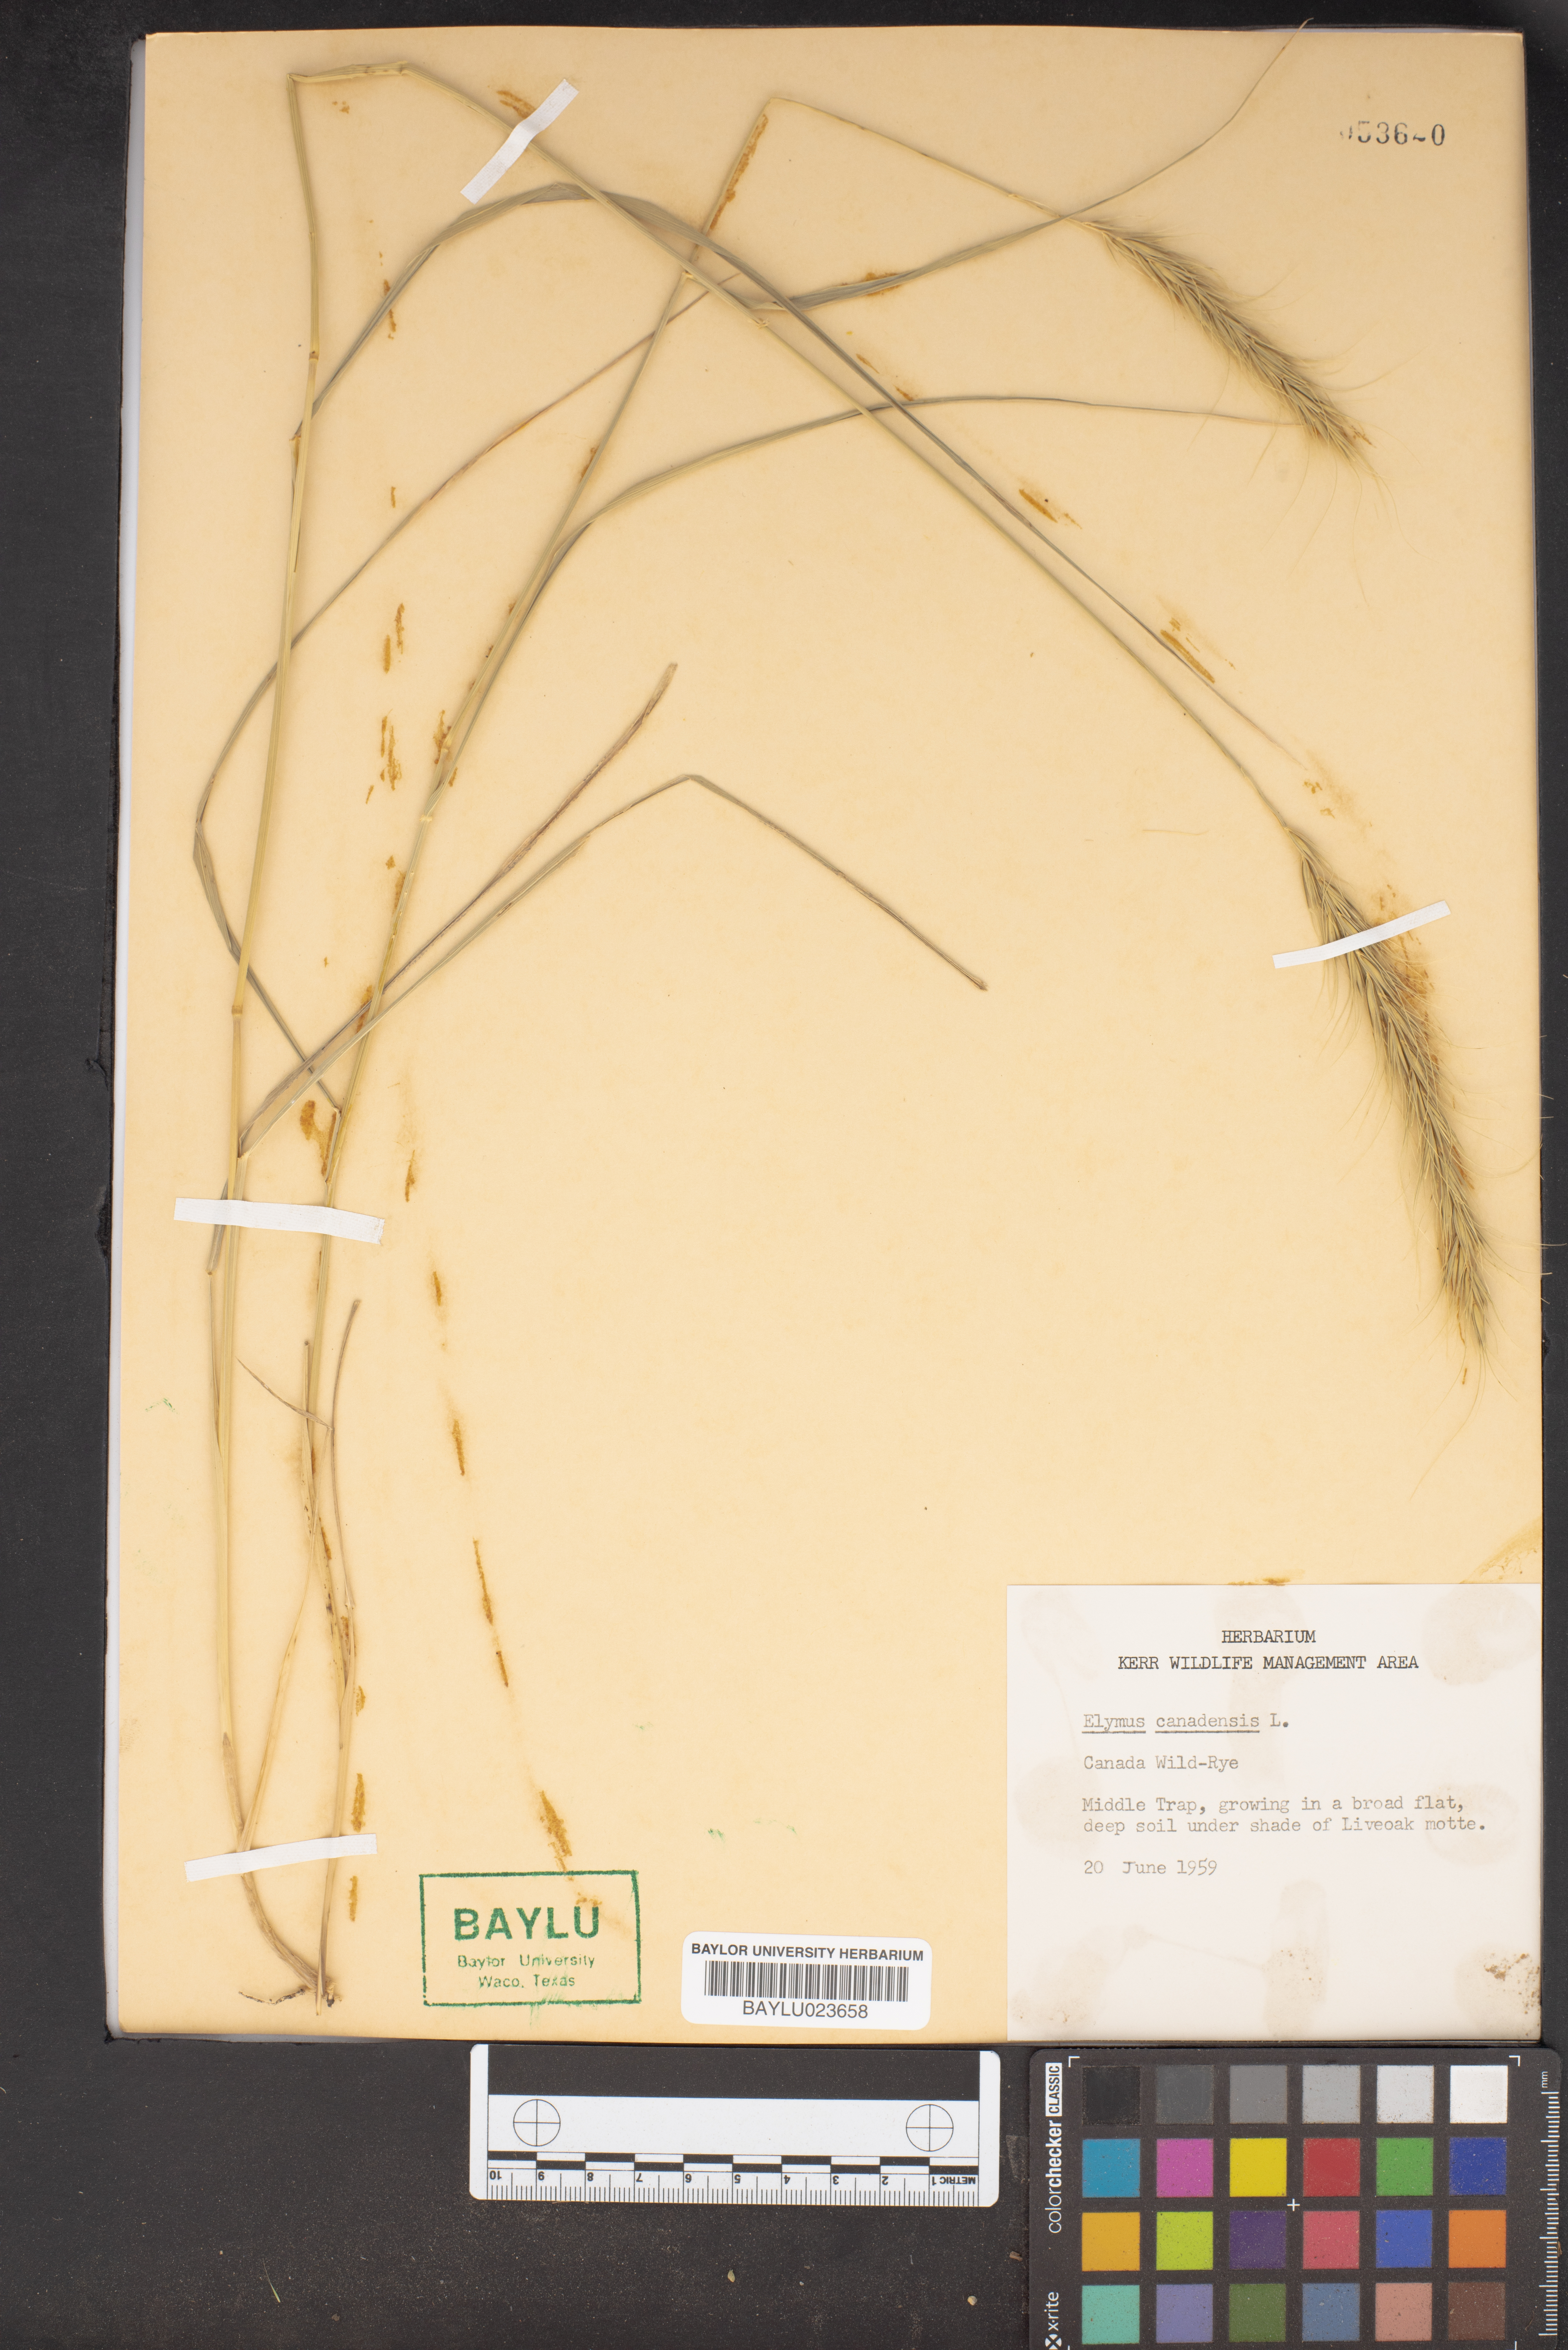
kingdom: Plantae
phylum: Tracheophyta
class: Liliopsida
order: Poales
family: Poaceae
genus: Elymus
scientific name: Elymus canadensis
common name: Canada wild rye
